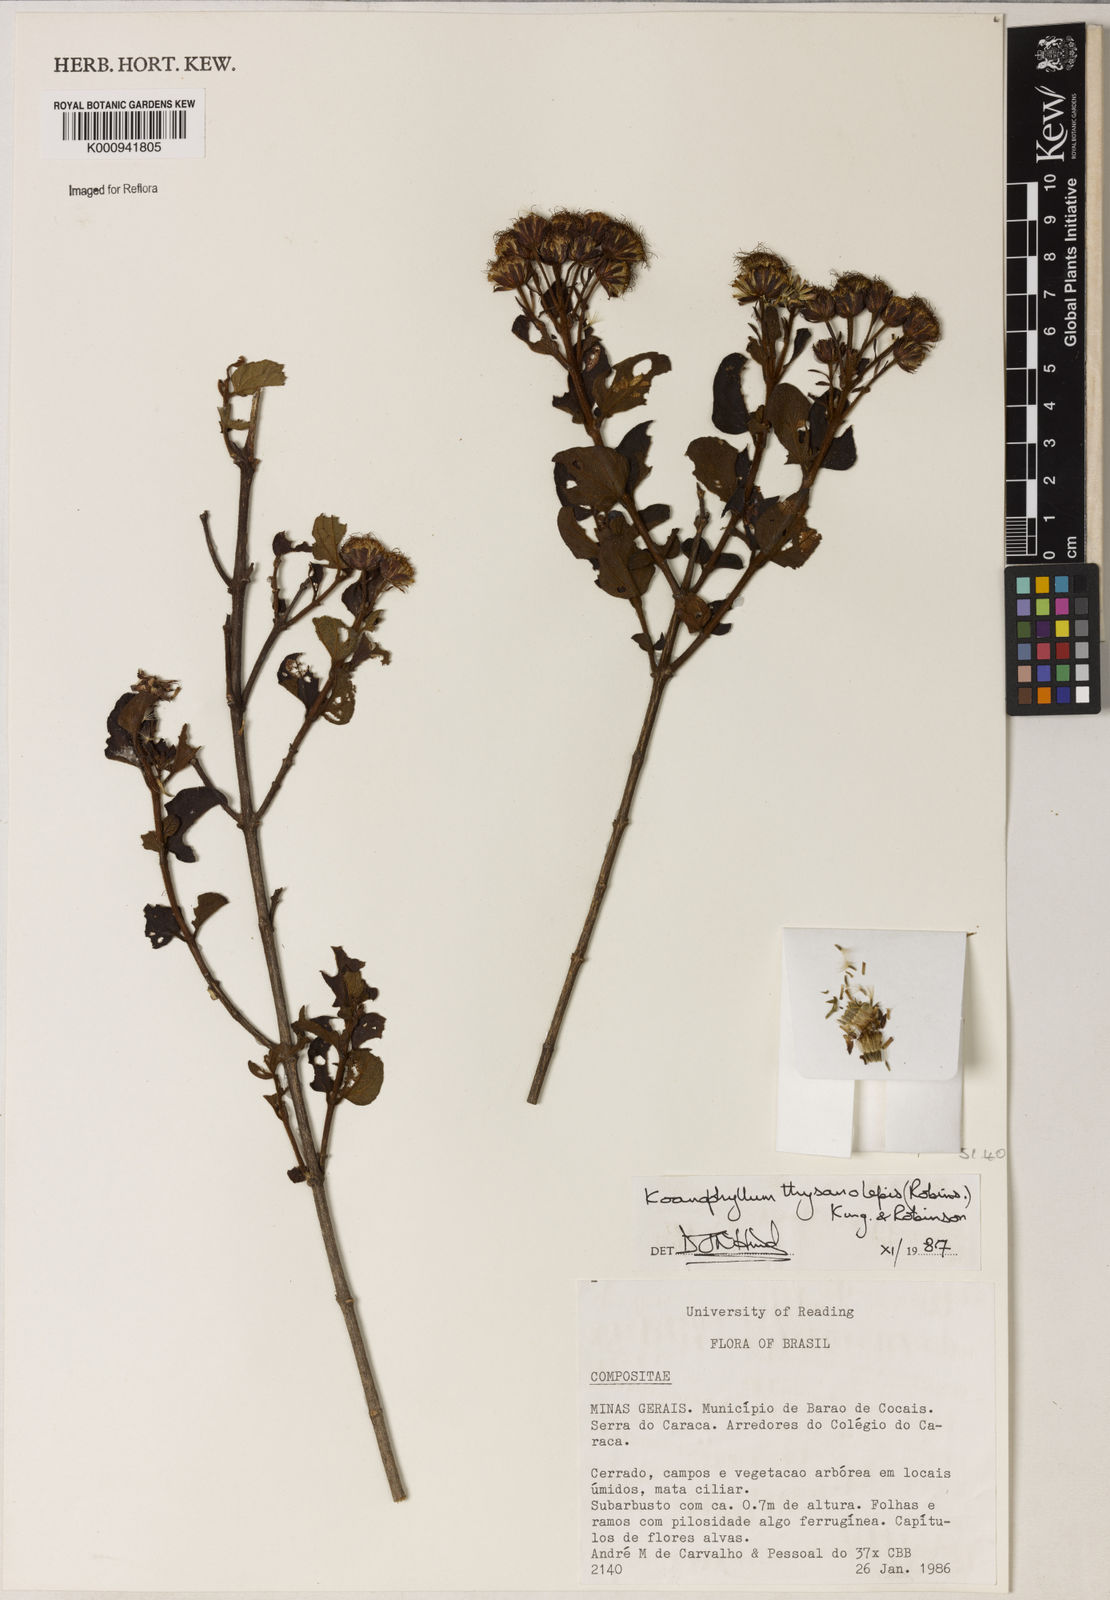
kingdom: Plantae
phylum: Tracheophyta
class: Magnoliopsida
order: Asterales
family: Asteraceae
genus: Koanophyllon
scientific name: Koanophyllon thysanolepis
